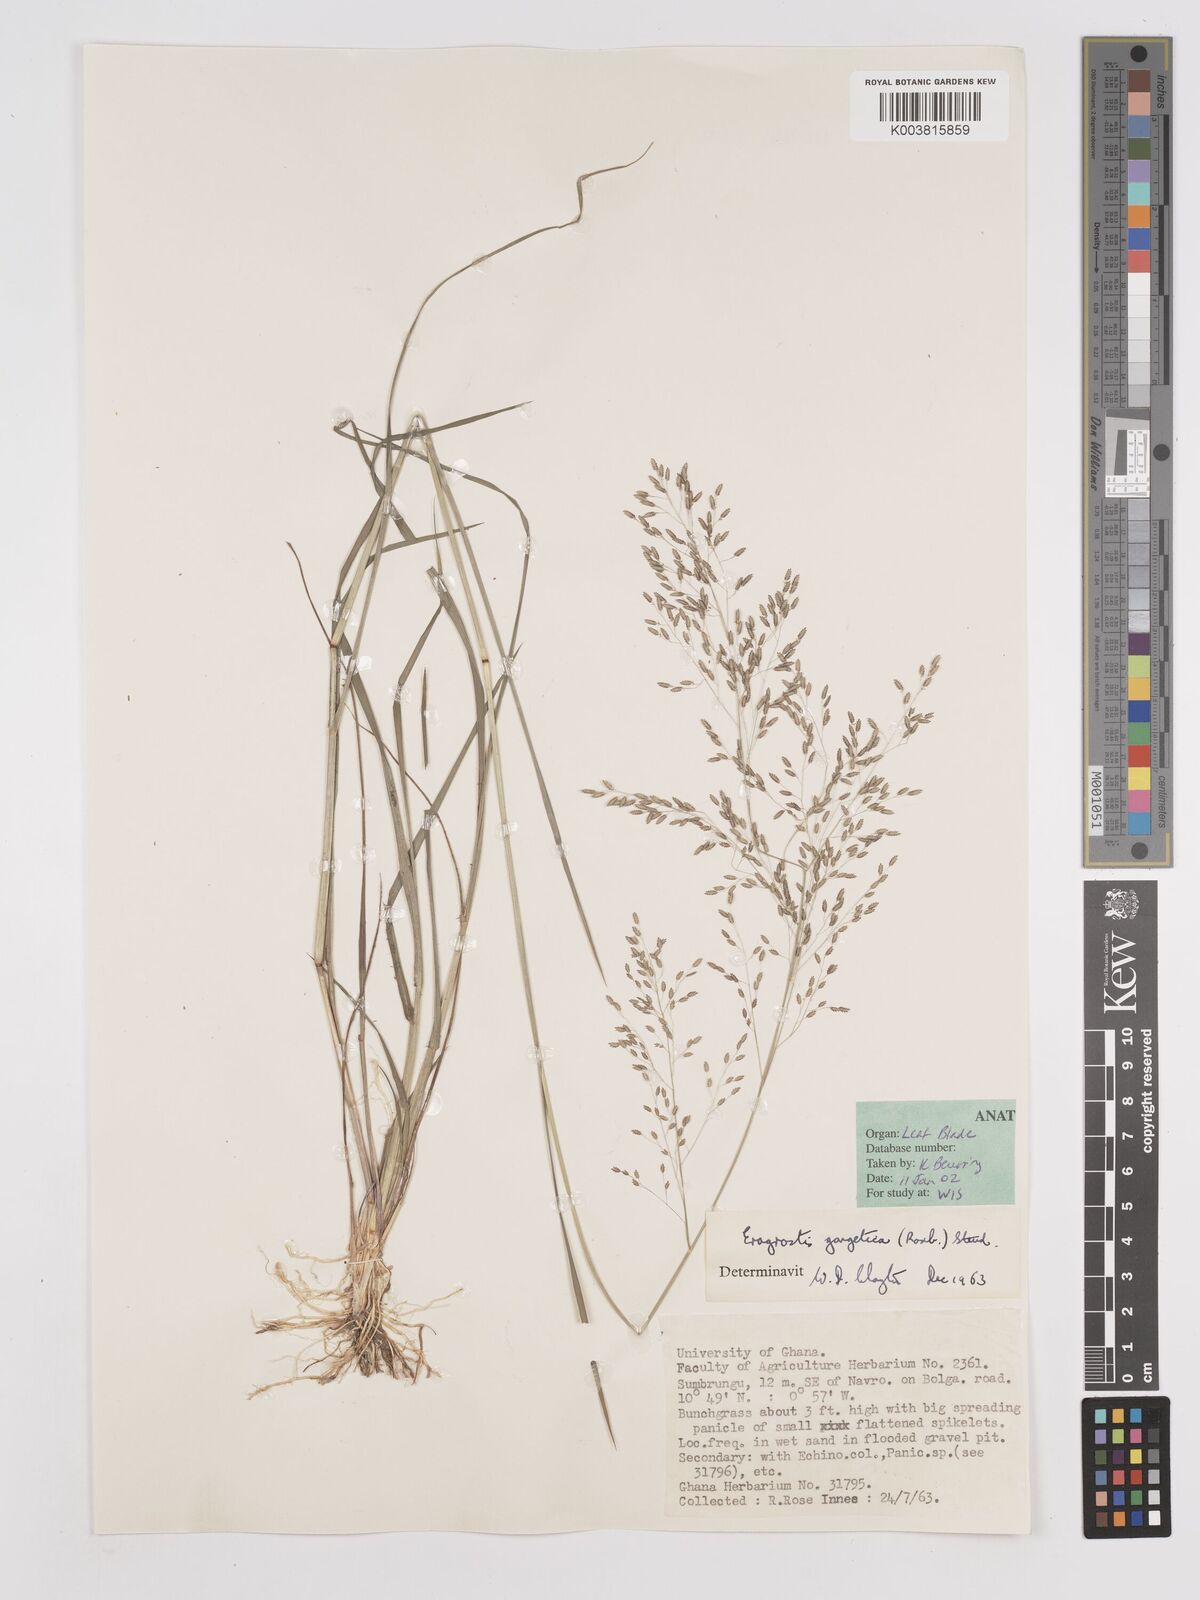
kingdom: Plantae
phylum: Tracheophyta
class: Liliopsida
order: Poales
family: Poaceae
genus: Eragrostis
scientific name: Eragrostis gangetica
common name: Slimflower lovegrass
